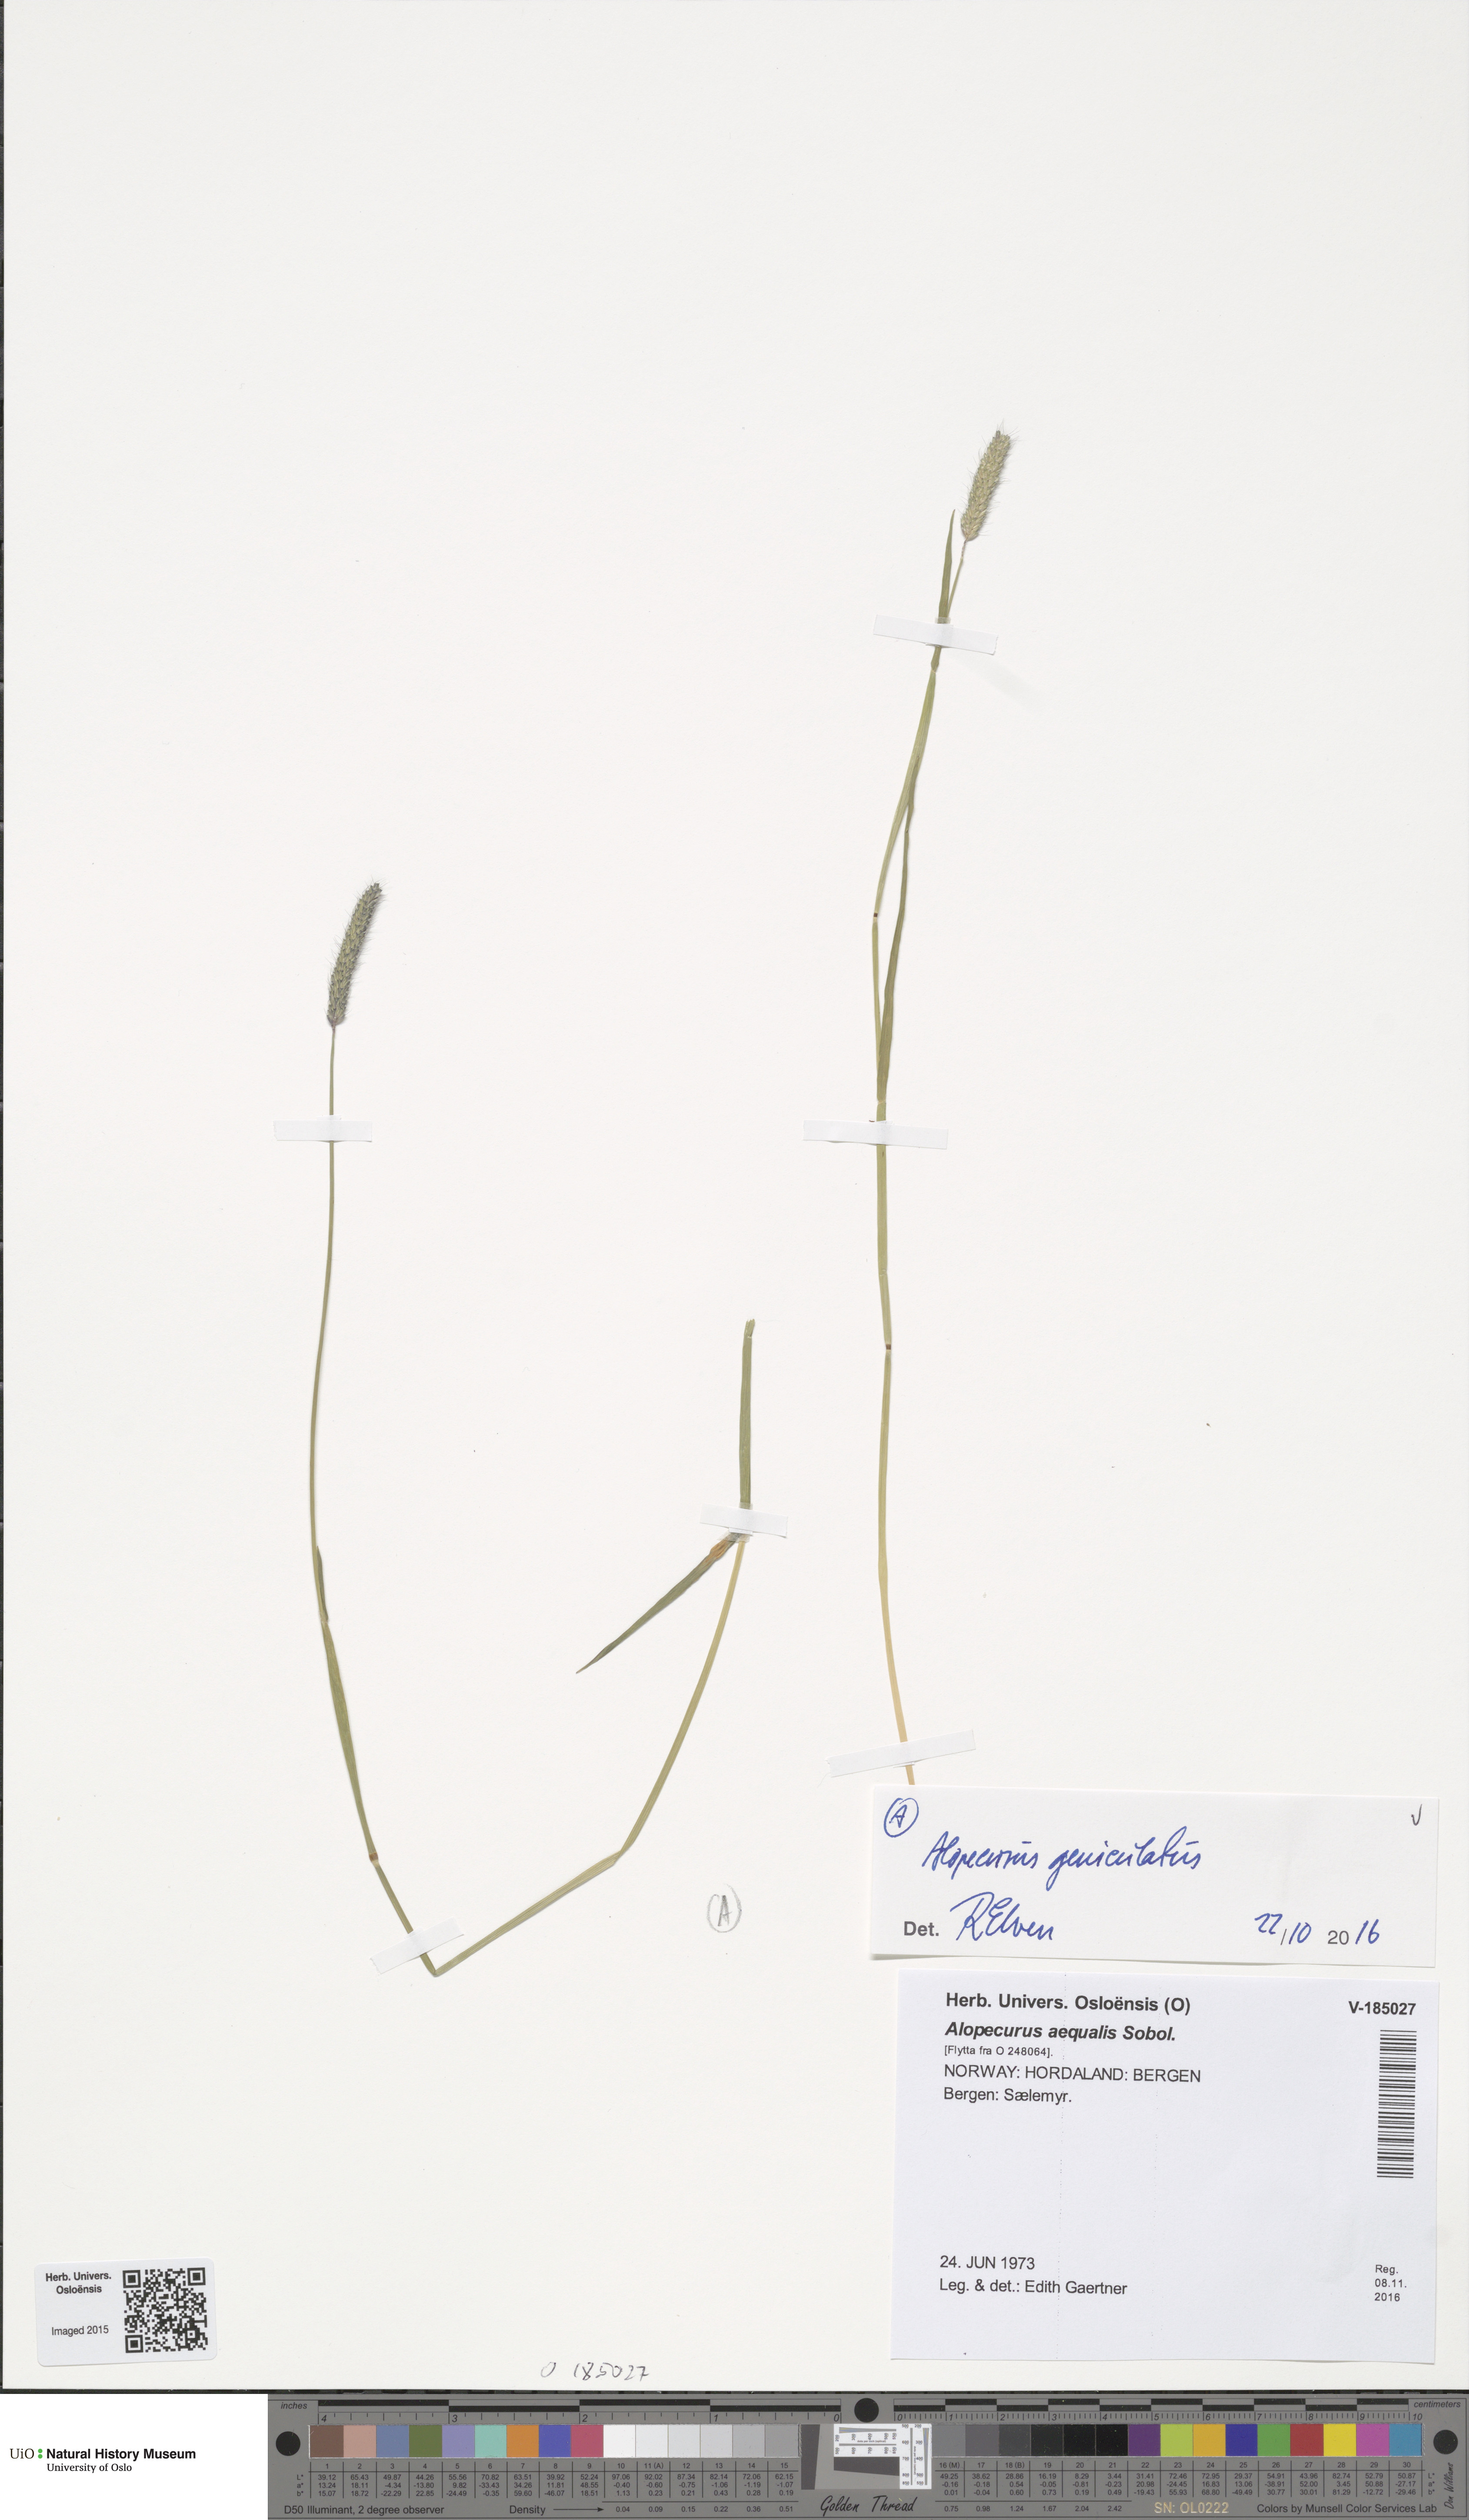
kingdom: Plantae
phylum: Tracheophyta
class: Liliopsida
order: Poales
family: Poaceae
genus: Alopecurus
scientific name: Alopecurus geniculatus
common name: Water foxtail
